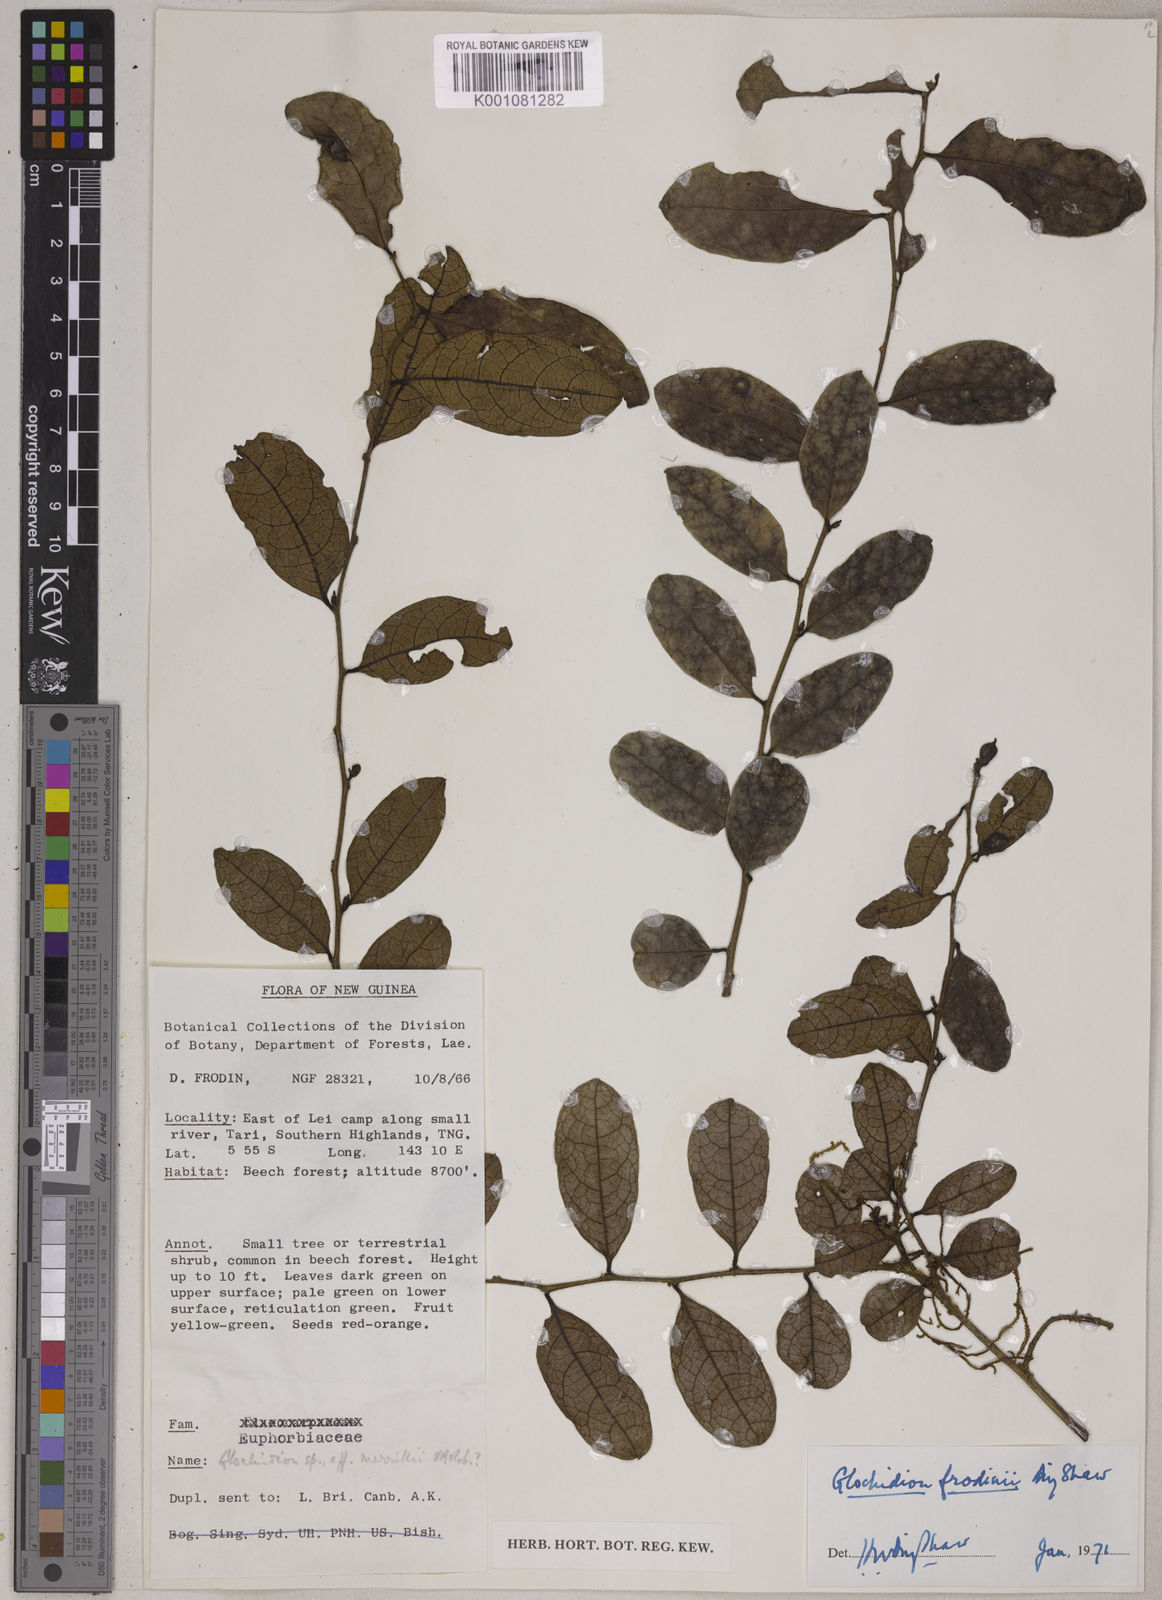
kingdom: Plantae
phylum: Tracheophyta
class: Magnoliopsida
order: Malpighiales
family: Phyllanthaceae
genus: Glochidion
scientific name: Glochidion frodinii
